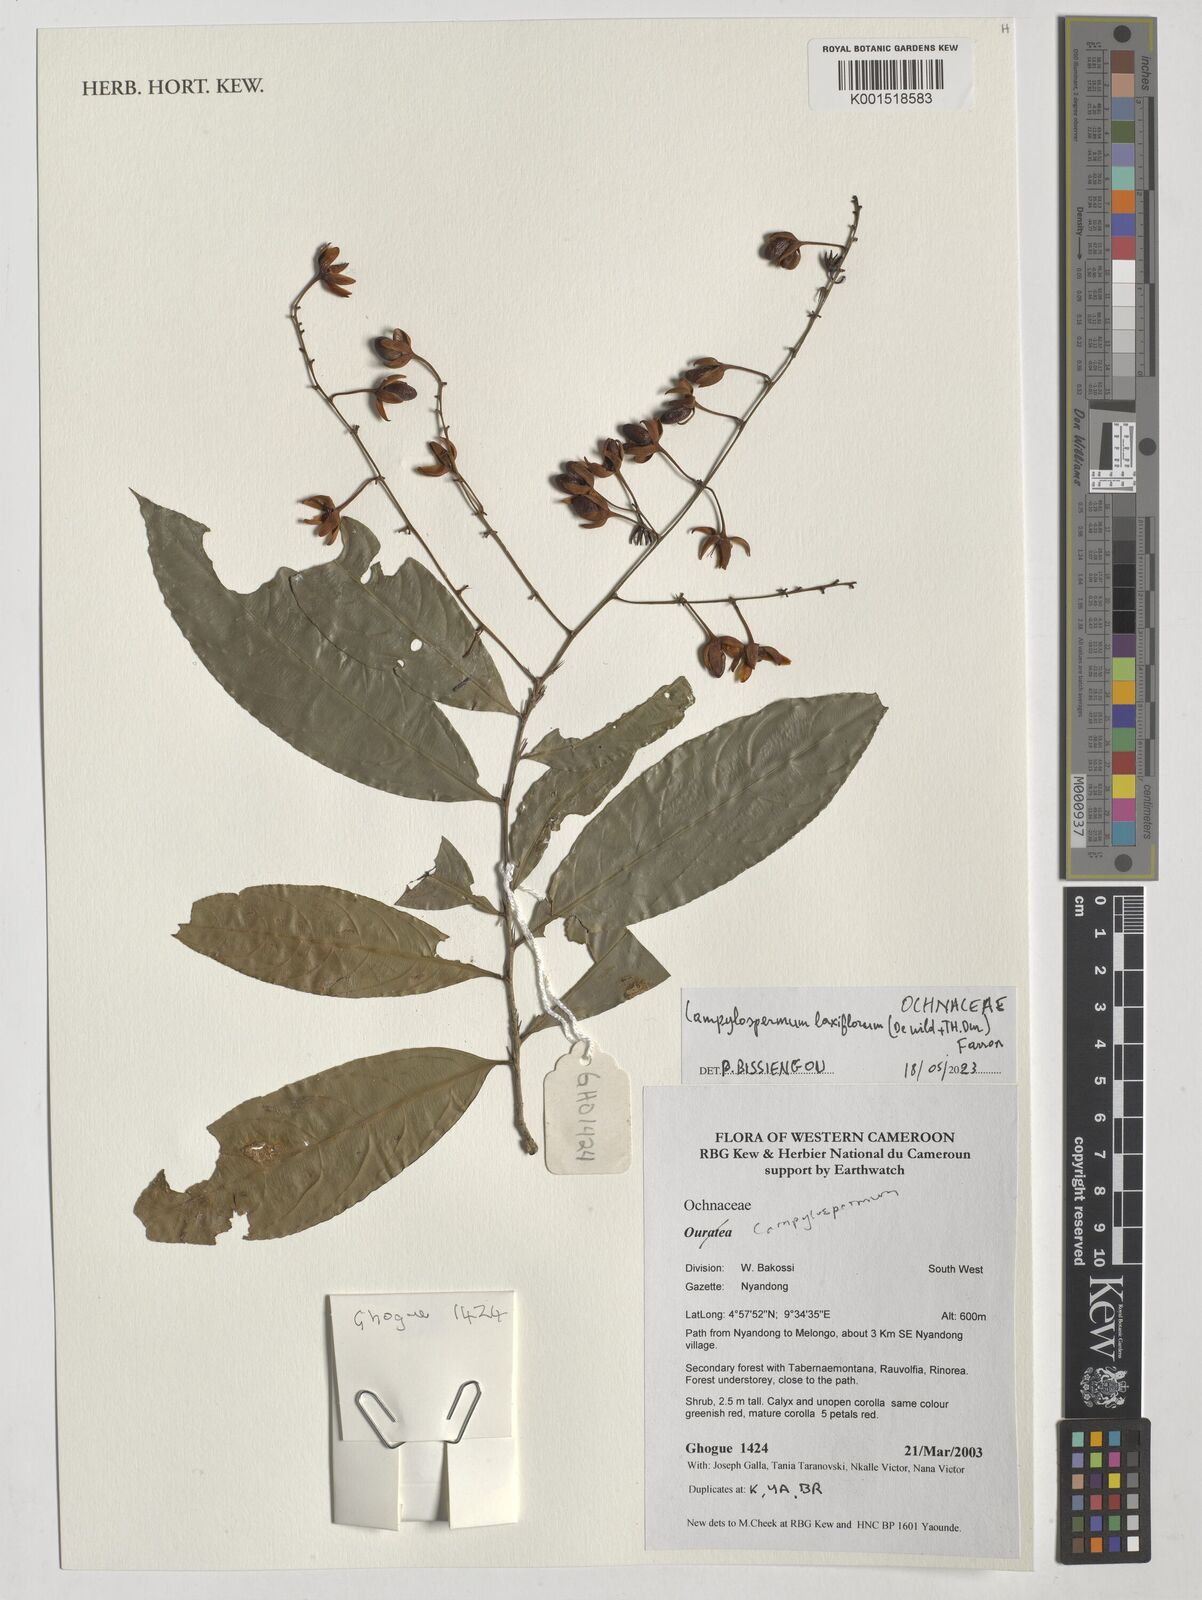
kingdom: Plantae
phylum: Tracheophyta
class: Magnoliopsida
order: Malpighiales
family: Ochnaceae
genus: Campylospermum
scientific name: Campylospermum laxiflorum
